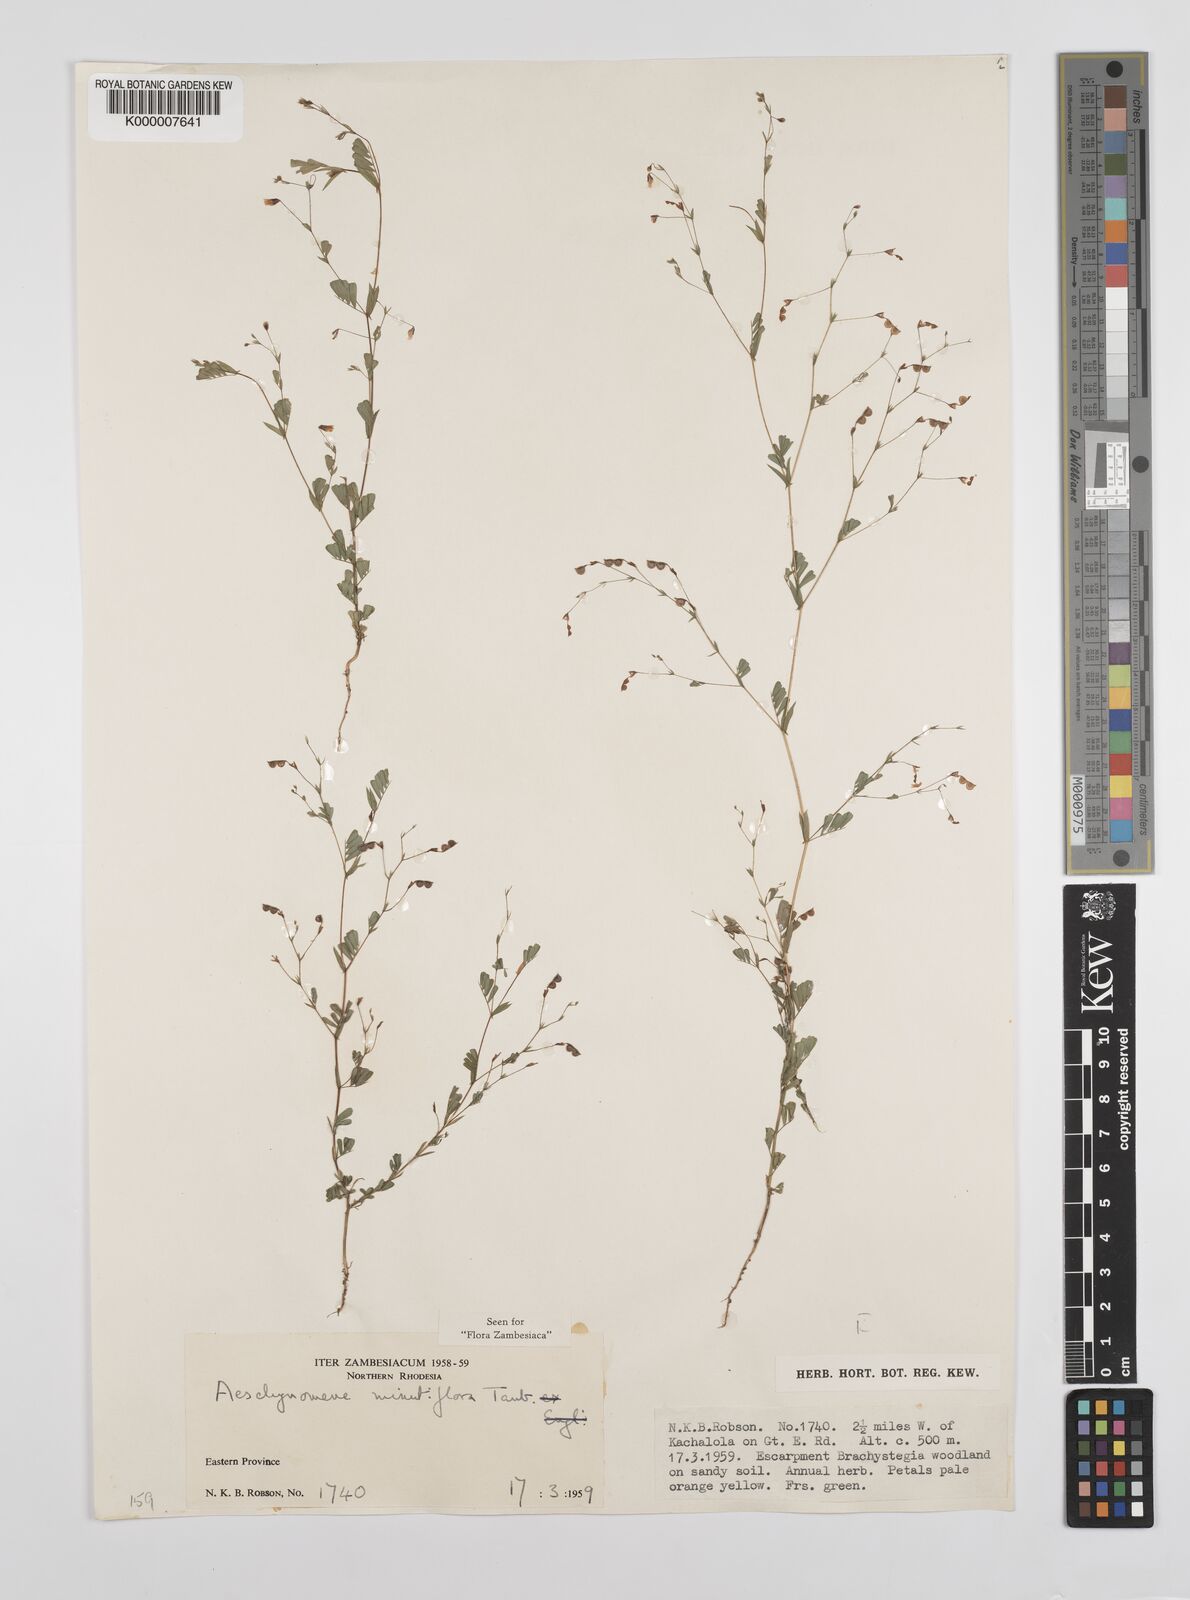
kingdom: Plantae
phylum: Tracheophyta
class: Magnoliopsida
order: Fabales
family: Fabaceae
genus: Aeschynomene
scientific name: Aeschynomene minutiflora
